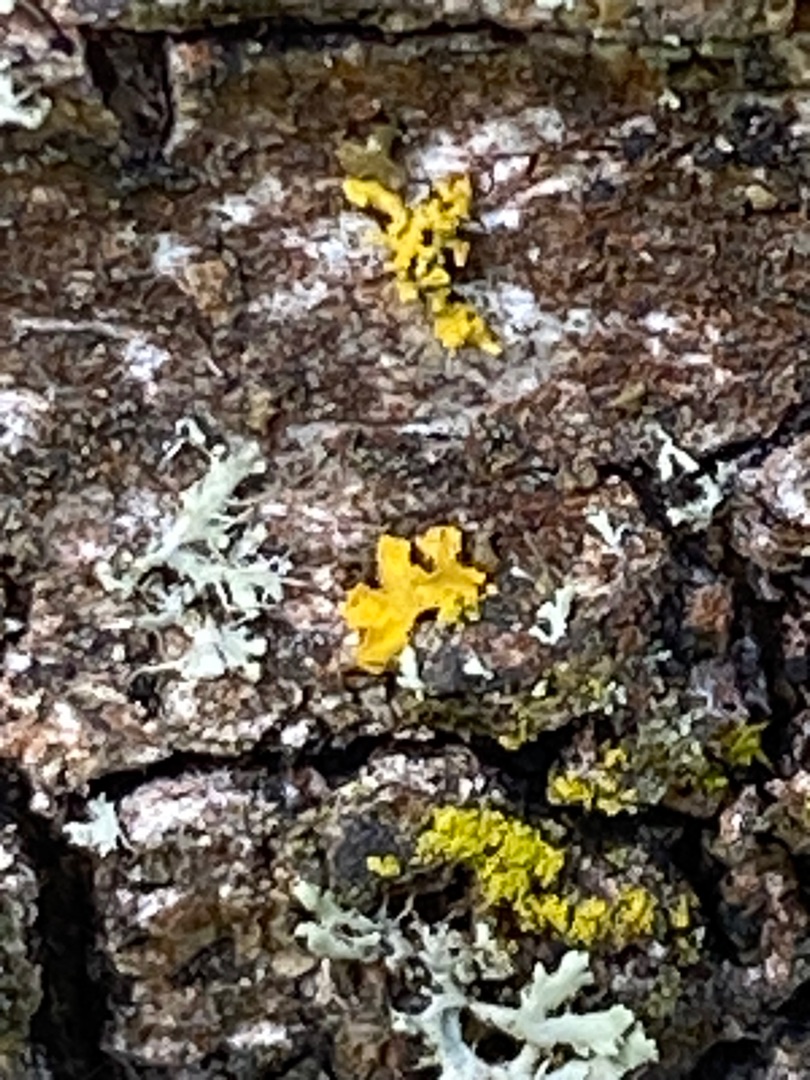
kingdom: Fungi
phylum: Ascomycota
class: Lecanoromycetes
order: Teloschistales
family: Teloschistaceae
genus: Xanthoria
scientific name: Xanthoria parietina
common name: Almindelig væggelav
